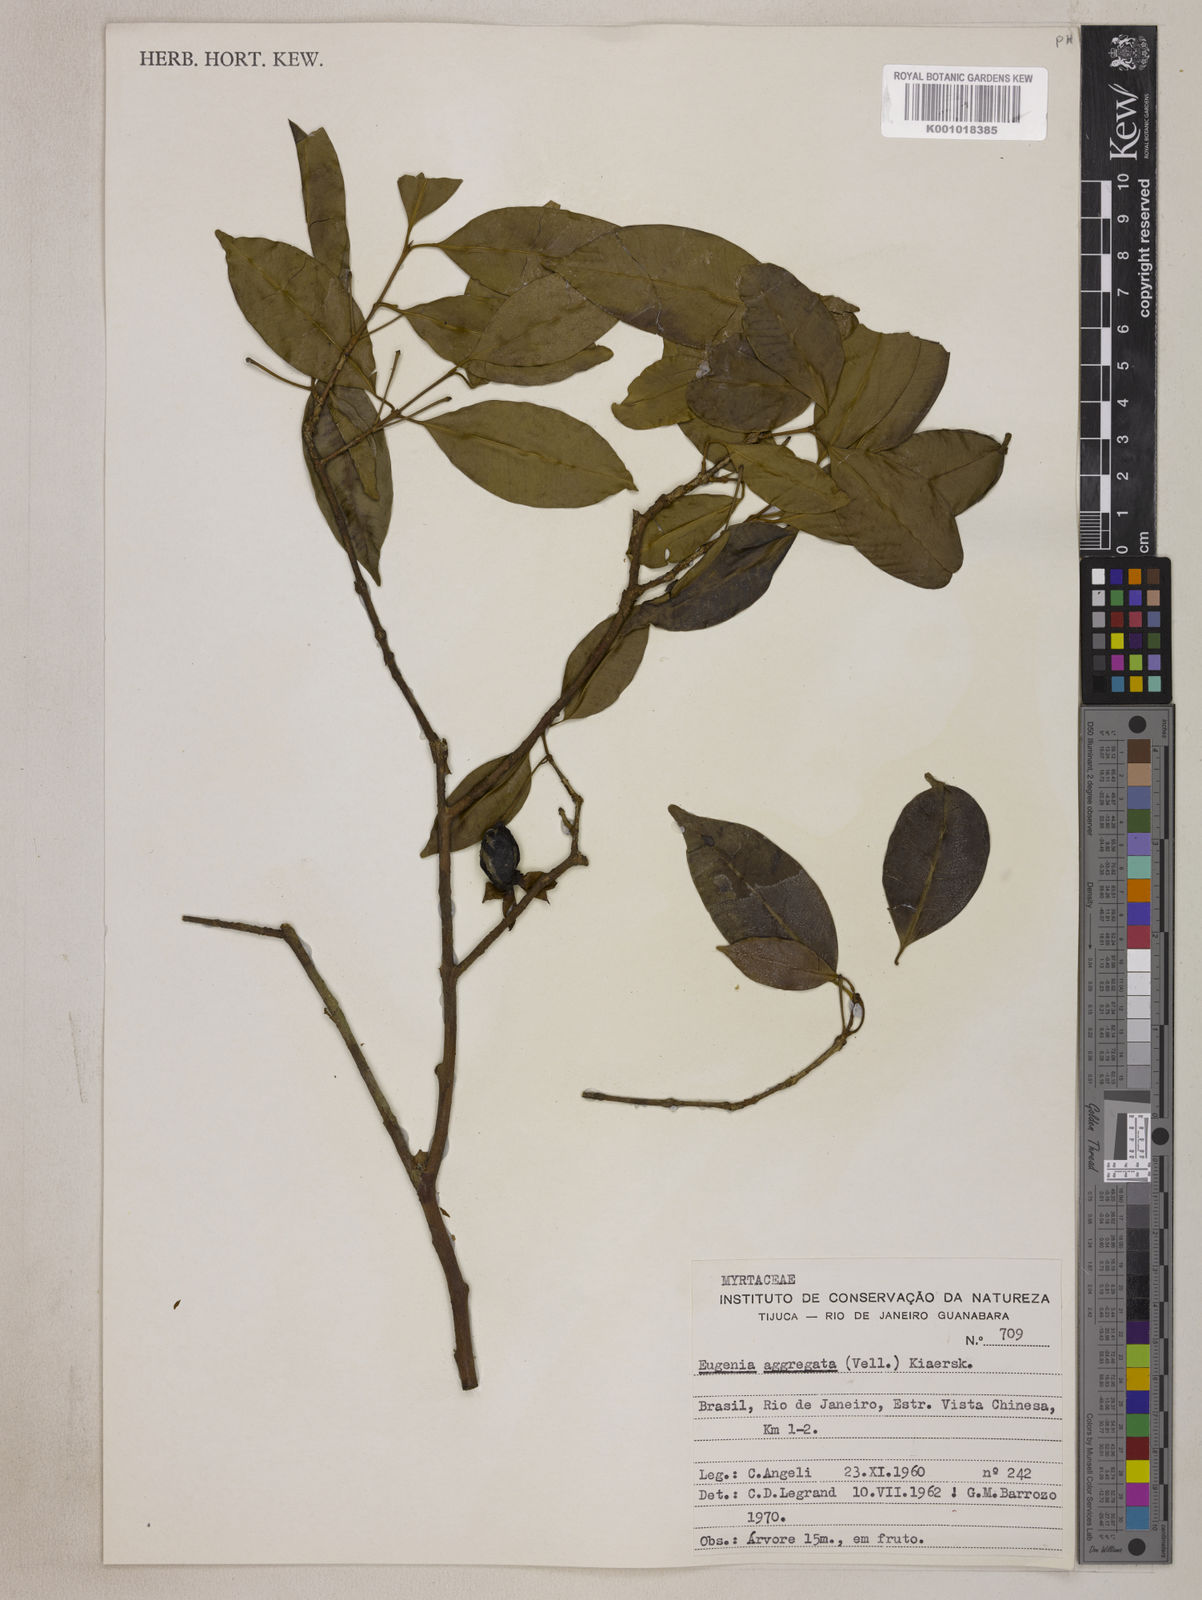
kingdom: Plantae
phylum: Tracheophyta
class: Magnoliopsida
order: Myrtales
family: Myrtaceae
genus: Eugenia
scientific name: Eugenia involucrata
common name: Cherry-of-the-rio grande
